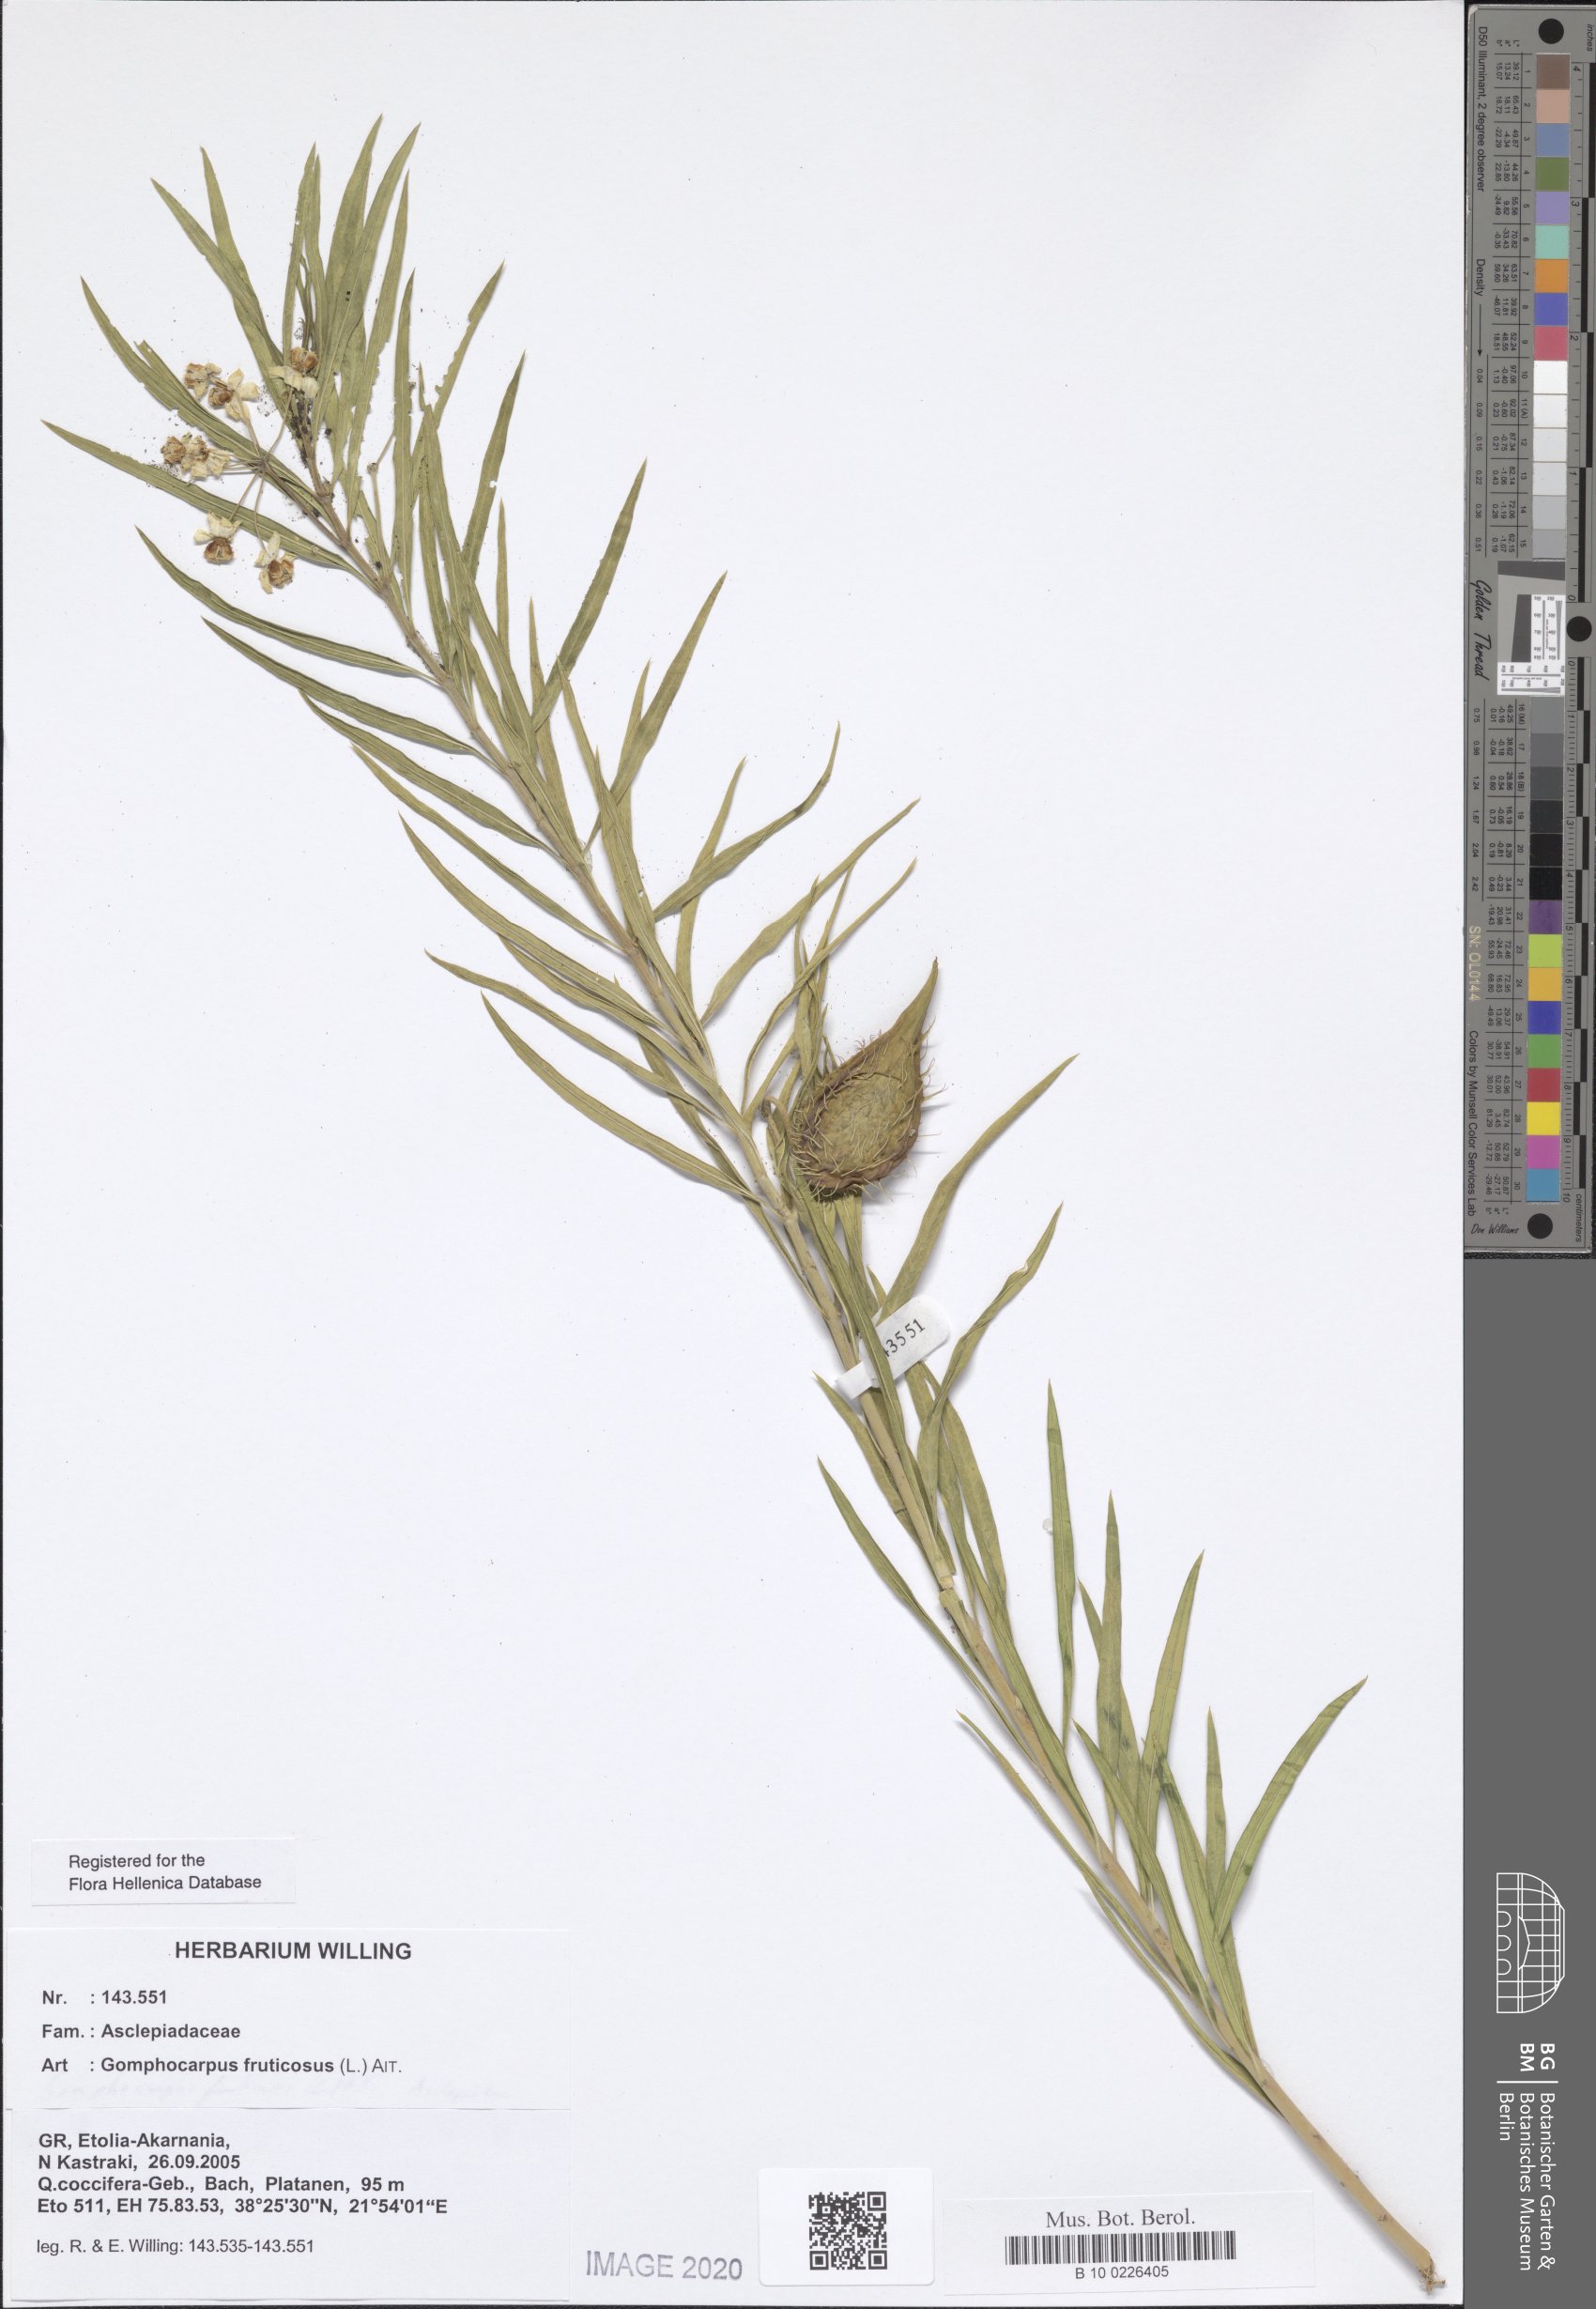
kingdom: Plantae
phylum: Tracheophyta
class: Magnoliopsida
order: Gentianales
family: Apocynaceae
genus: Gomphocarpus
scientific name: Gomphocarpus fruticosus
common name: Milkweed
